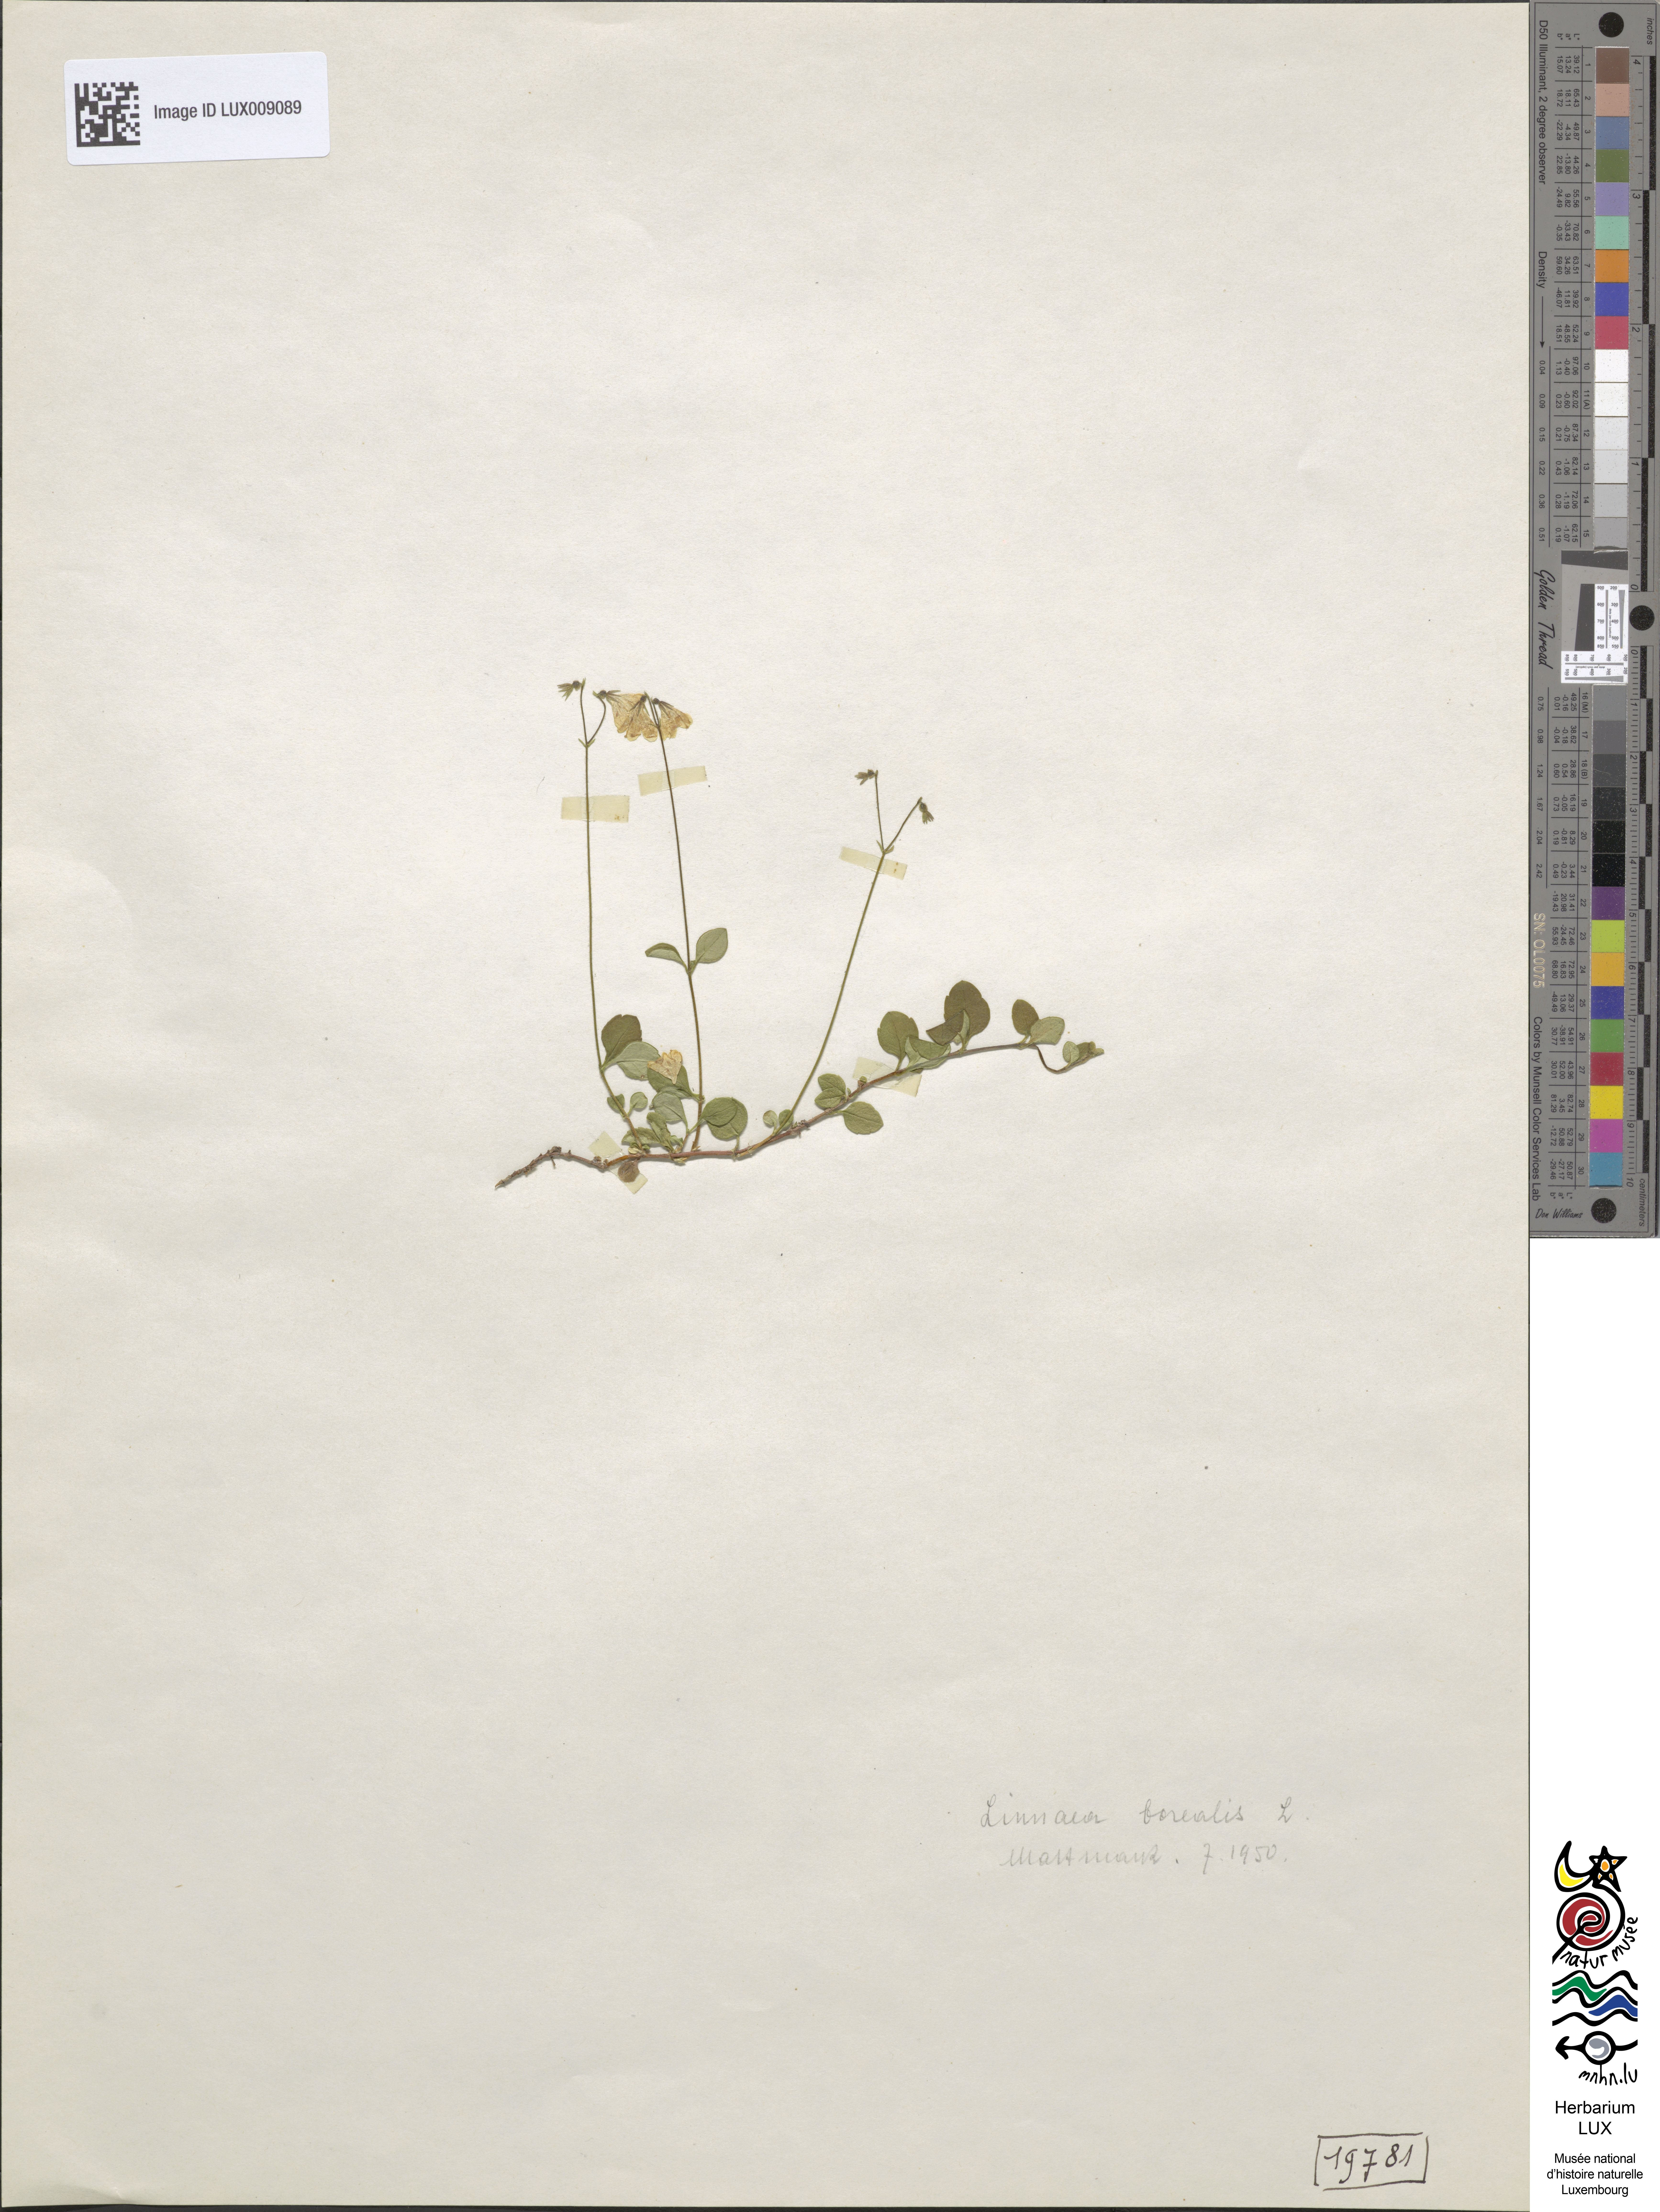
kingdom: Plantae
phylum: Tracheophyta
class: Magnoliopsida
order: Dipsacales
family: Caprifoliaceae
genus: Linnaea
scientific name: Linnaea borealis
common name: Twinflower
